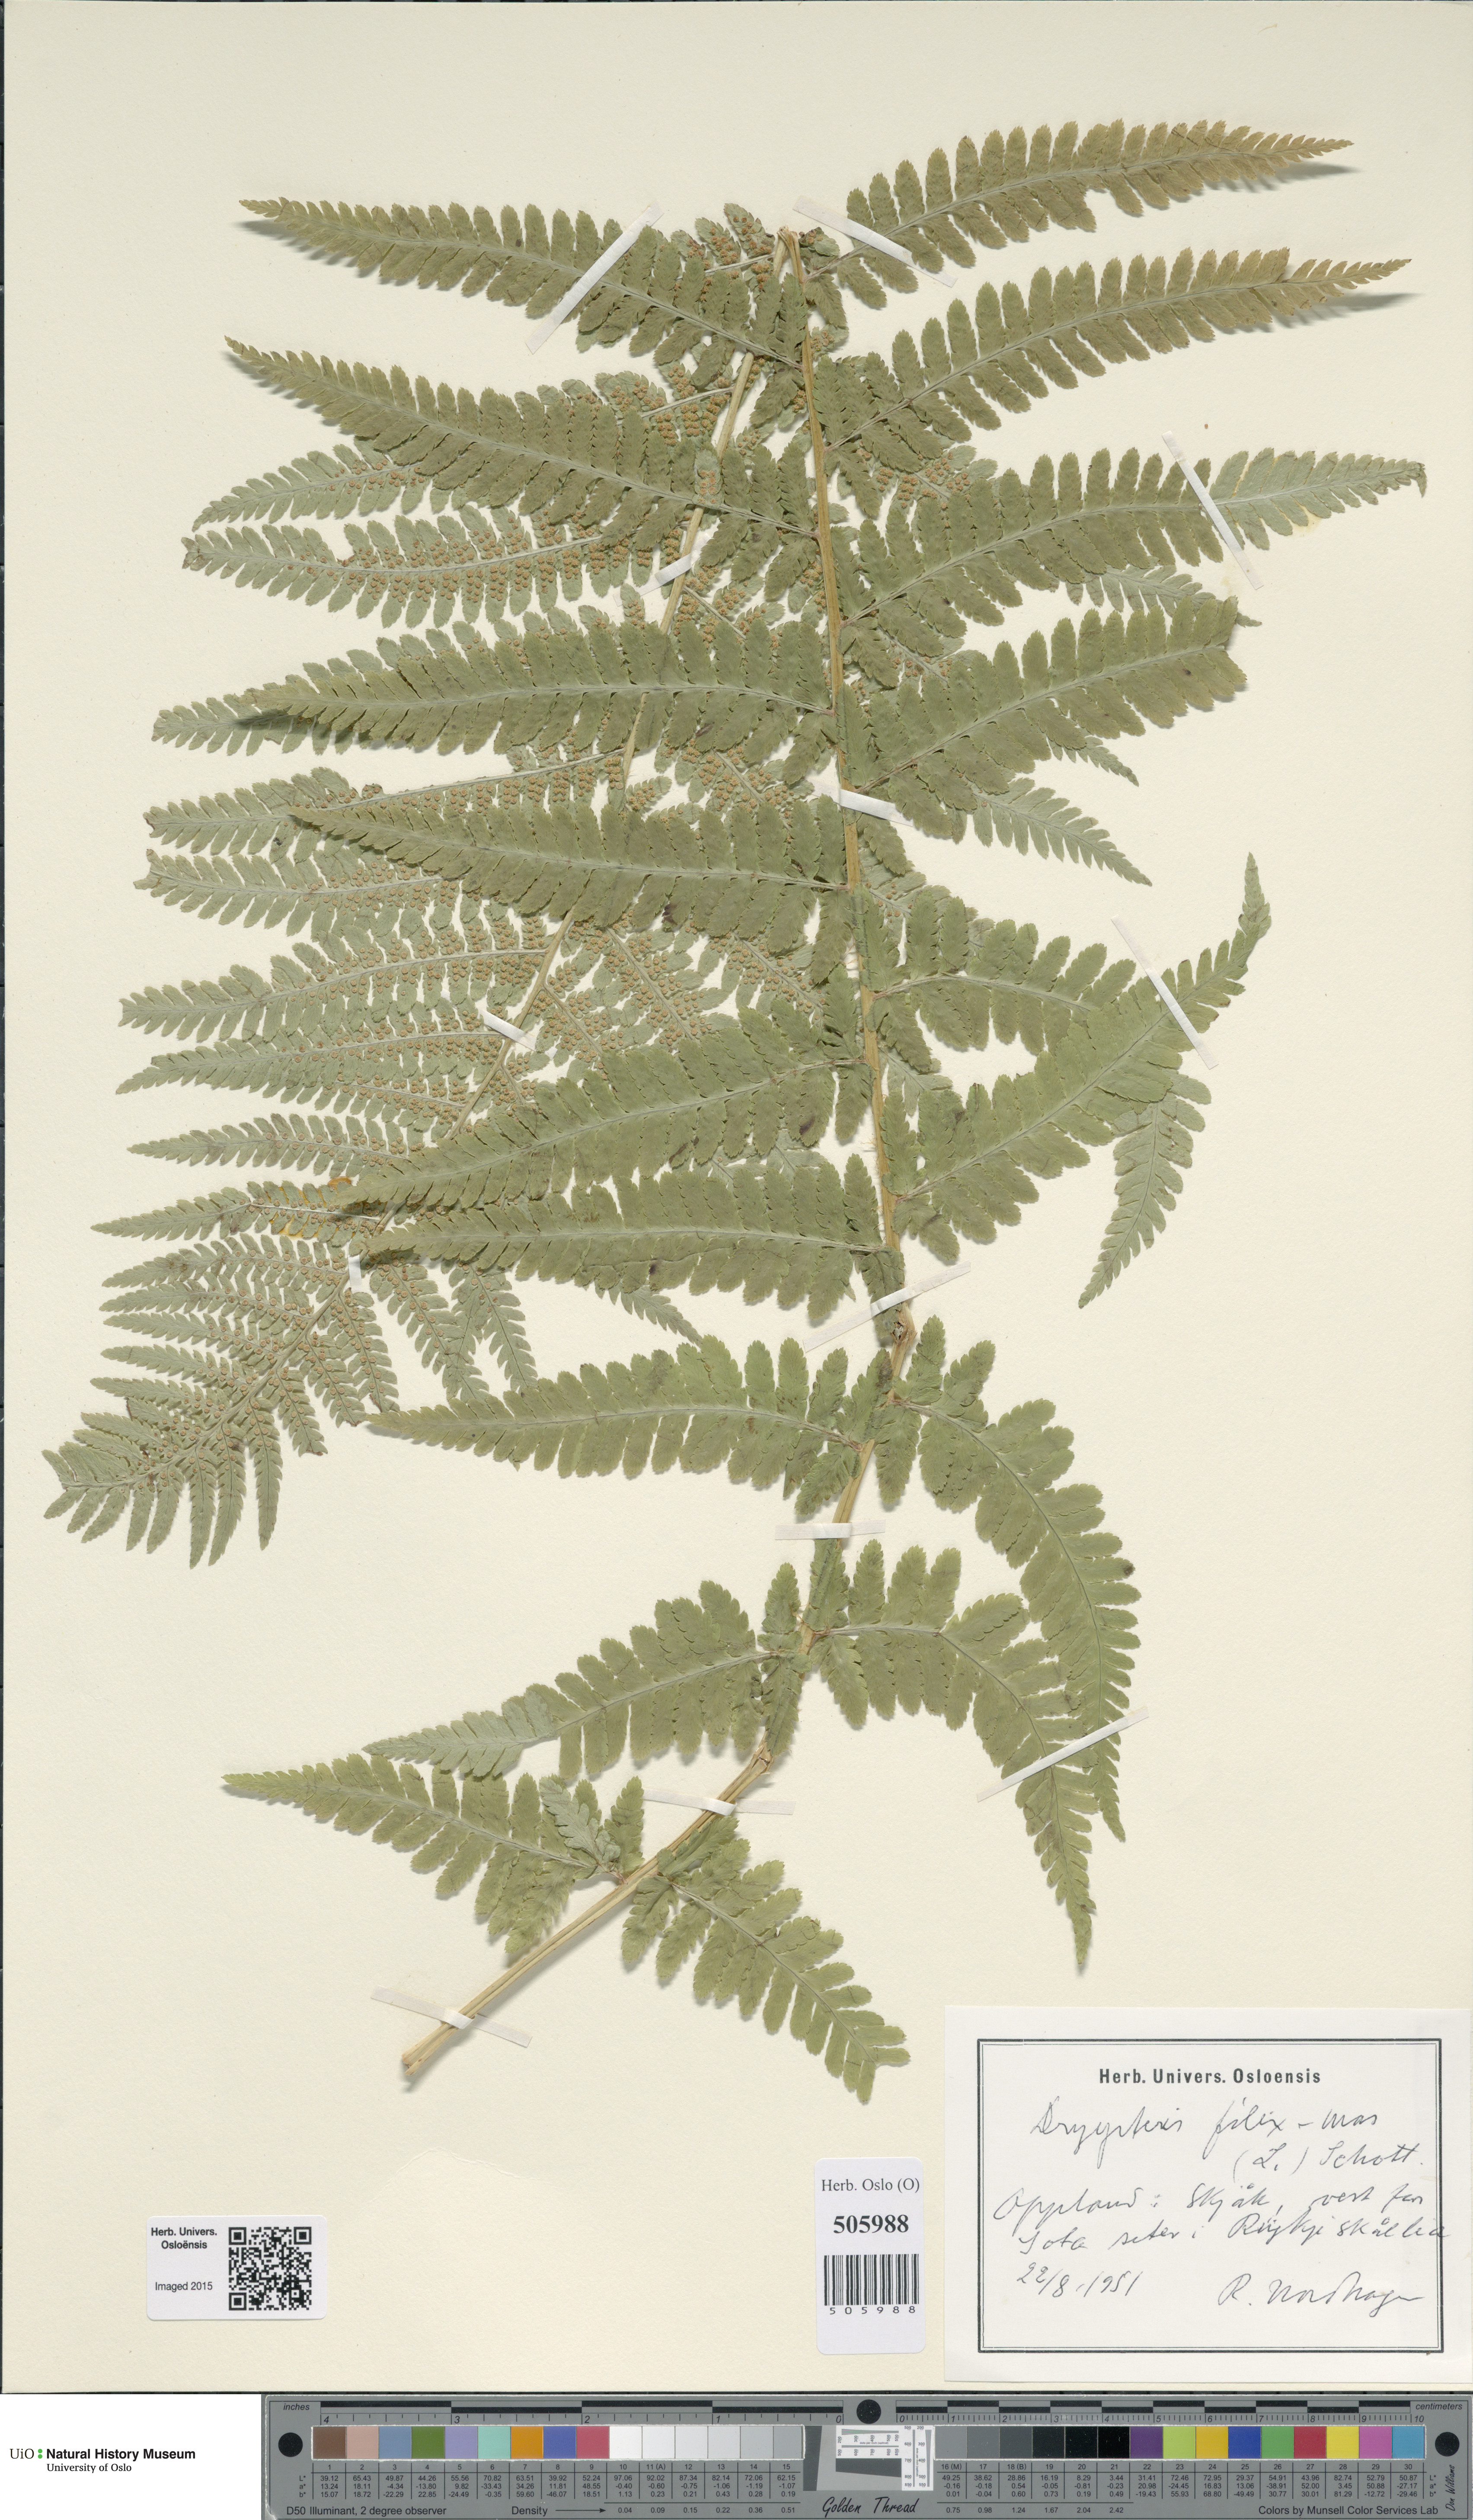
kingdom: Plantae
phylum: Tracheophyta
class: Polypodiopsida
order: Polypodiales
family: Dryopteridaceae
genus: Dryopteris
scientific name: Dryopteris filix-mas
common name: Male fern
